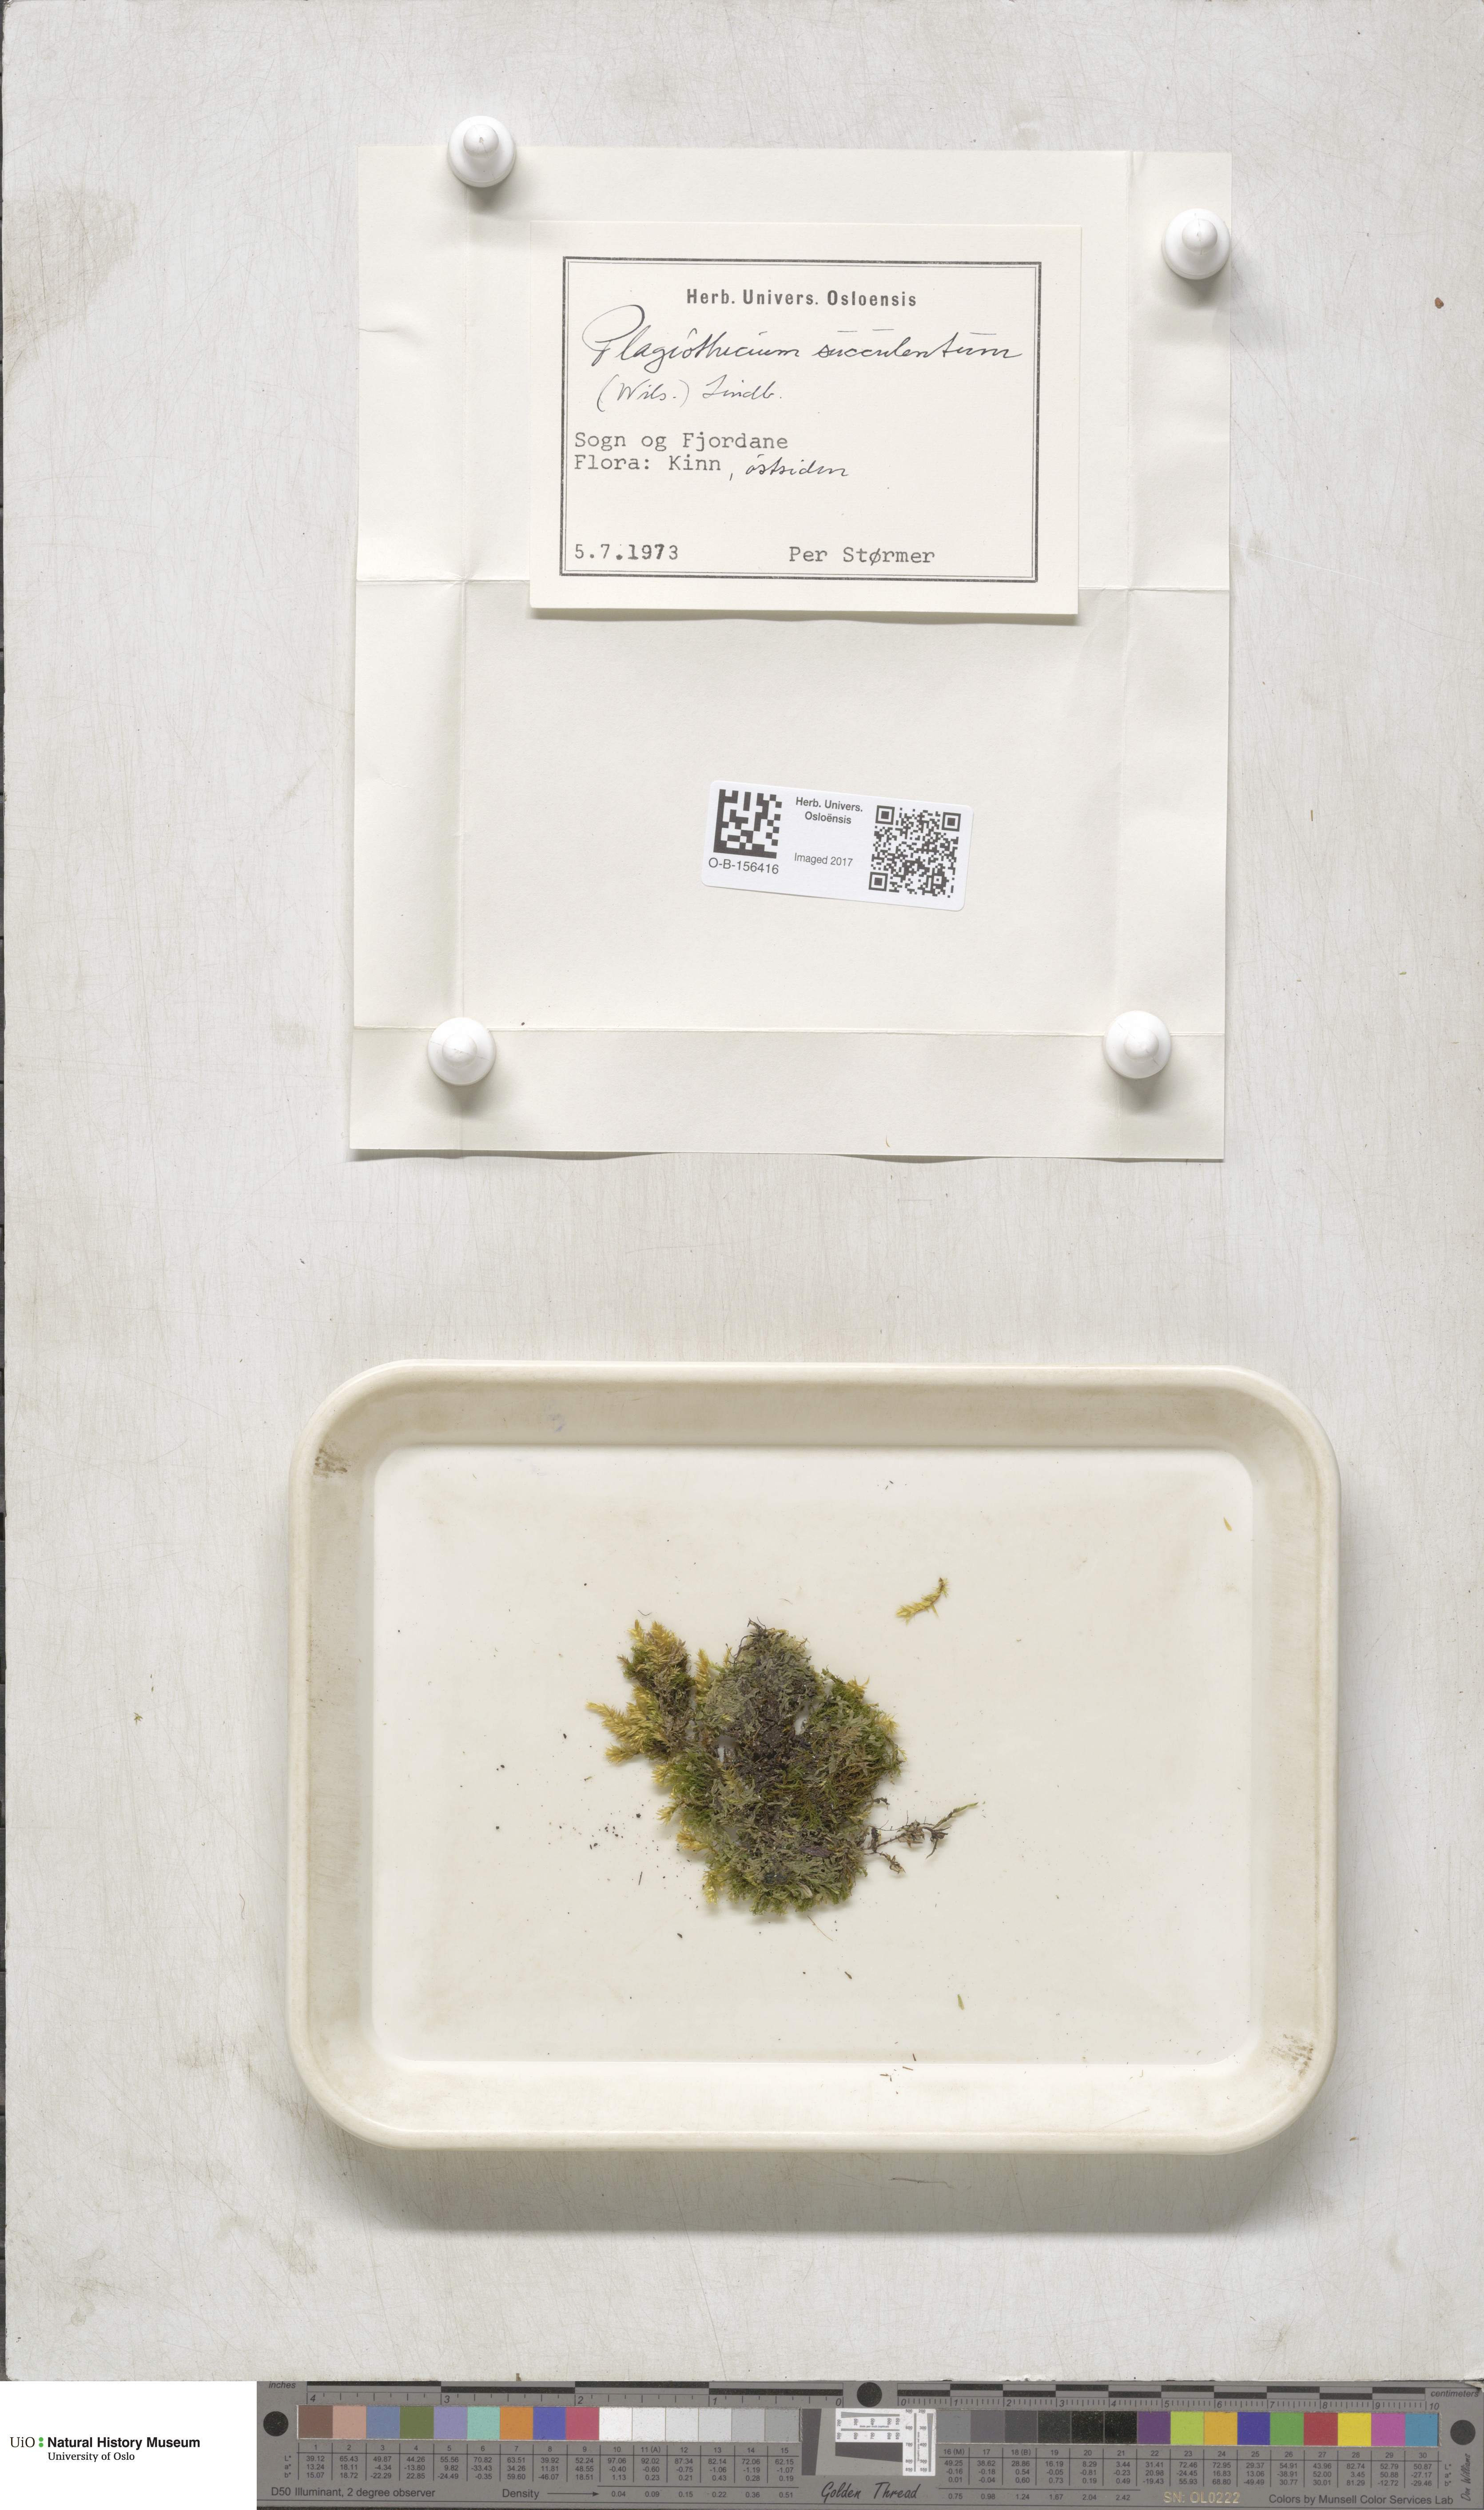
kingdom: Plantae
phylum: Bryophyta
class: Bryopsida
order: Hypnales
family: Plagiotheciaceae
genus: Plagiothecium
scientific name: Plagiothecium nemorale
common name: Woodsy silk-moss
